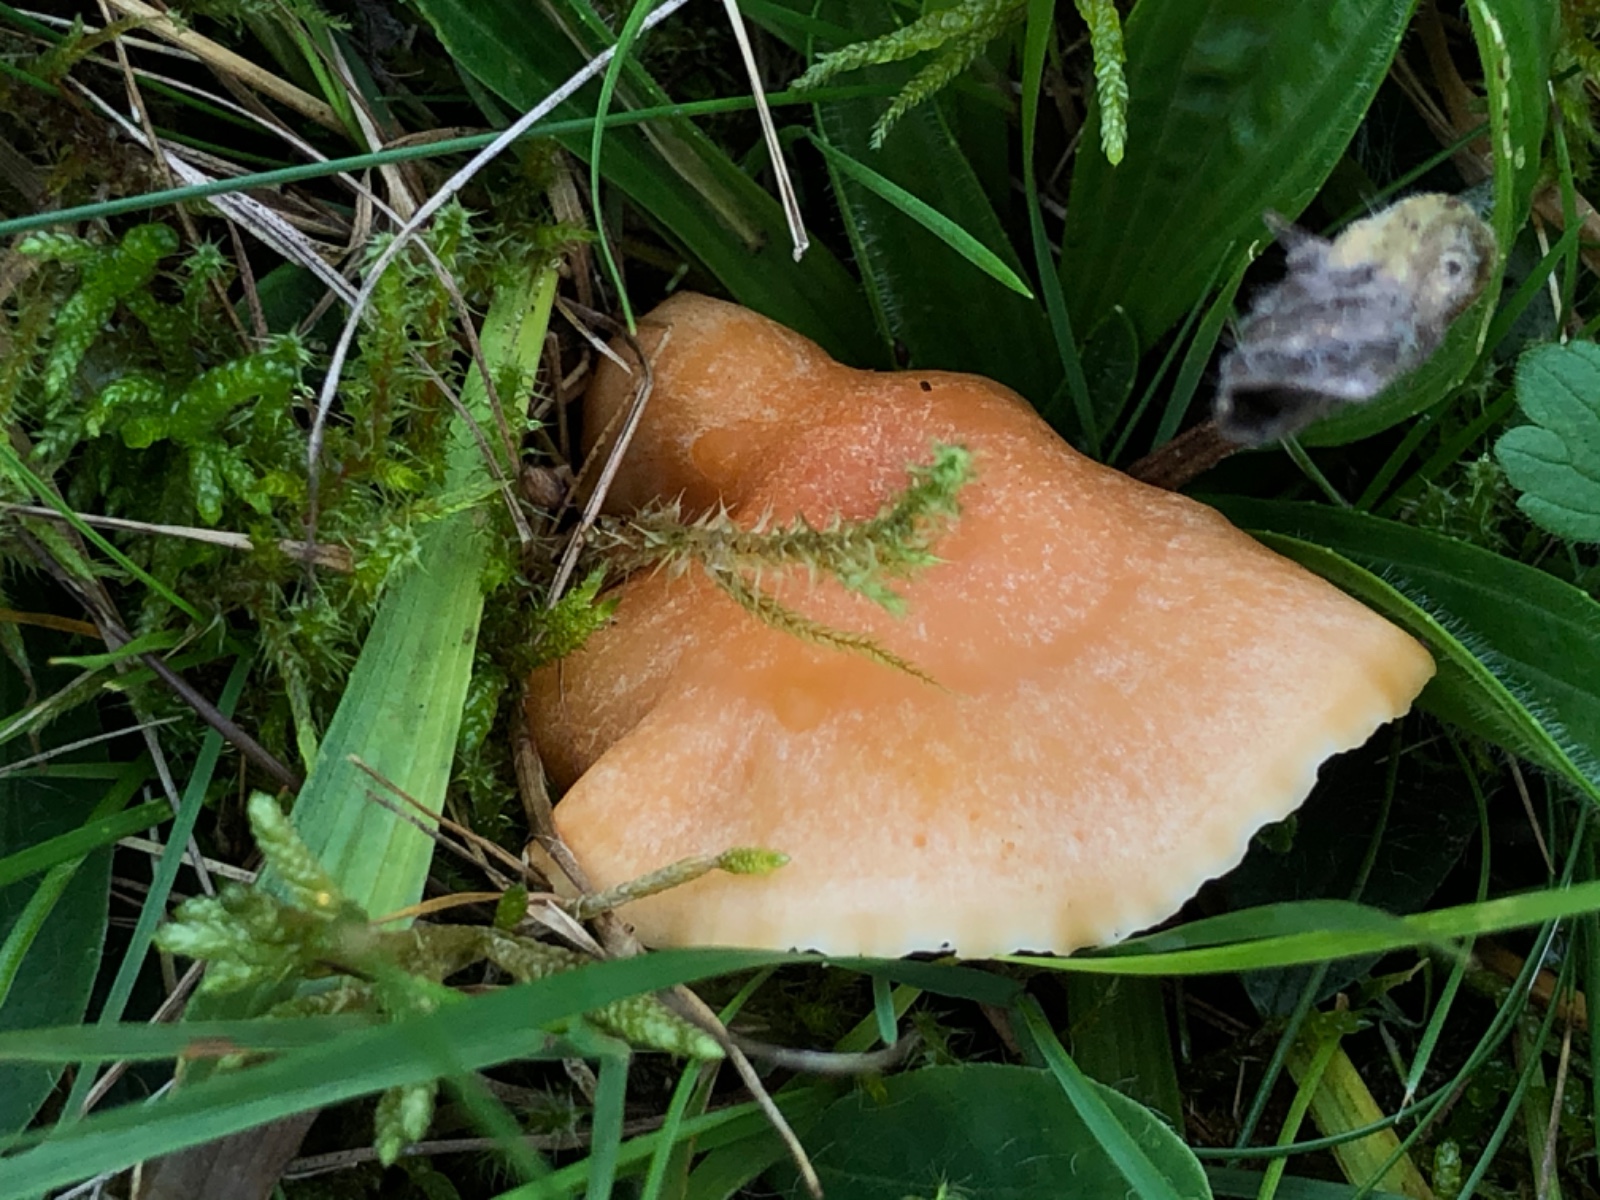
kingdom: Fungi
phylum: Basidiomycota
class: Agaricomycetes
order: Agaricales
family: Hygrophoraceae
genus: Cuphophyllus
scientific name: Cuphophyllus pratensis
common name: eng-vokshat
